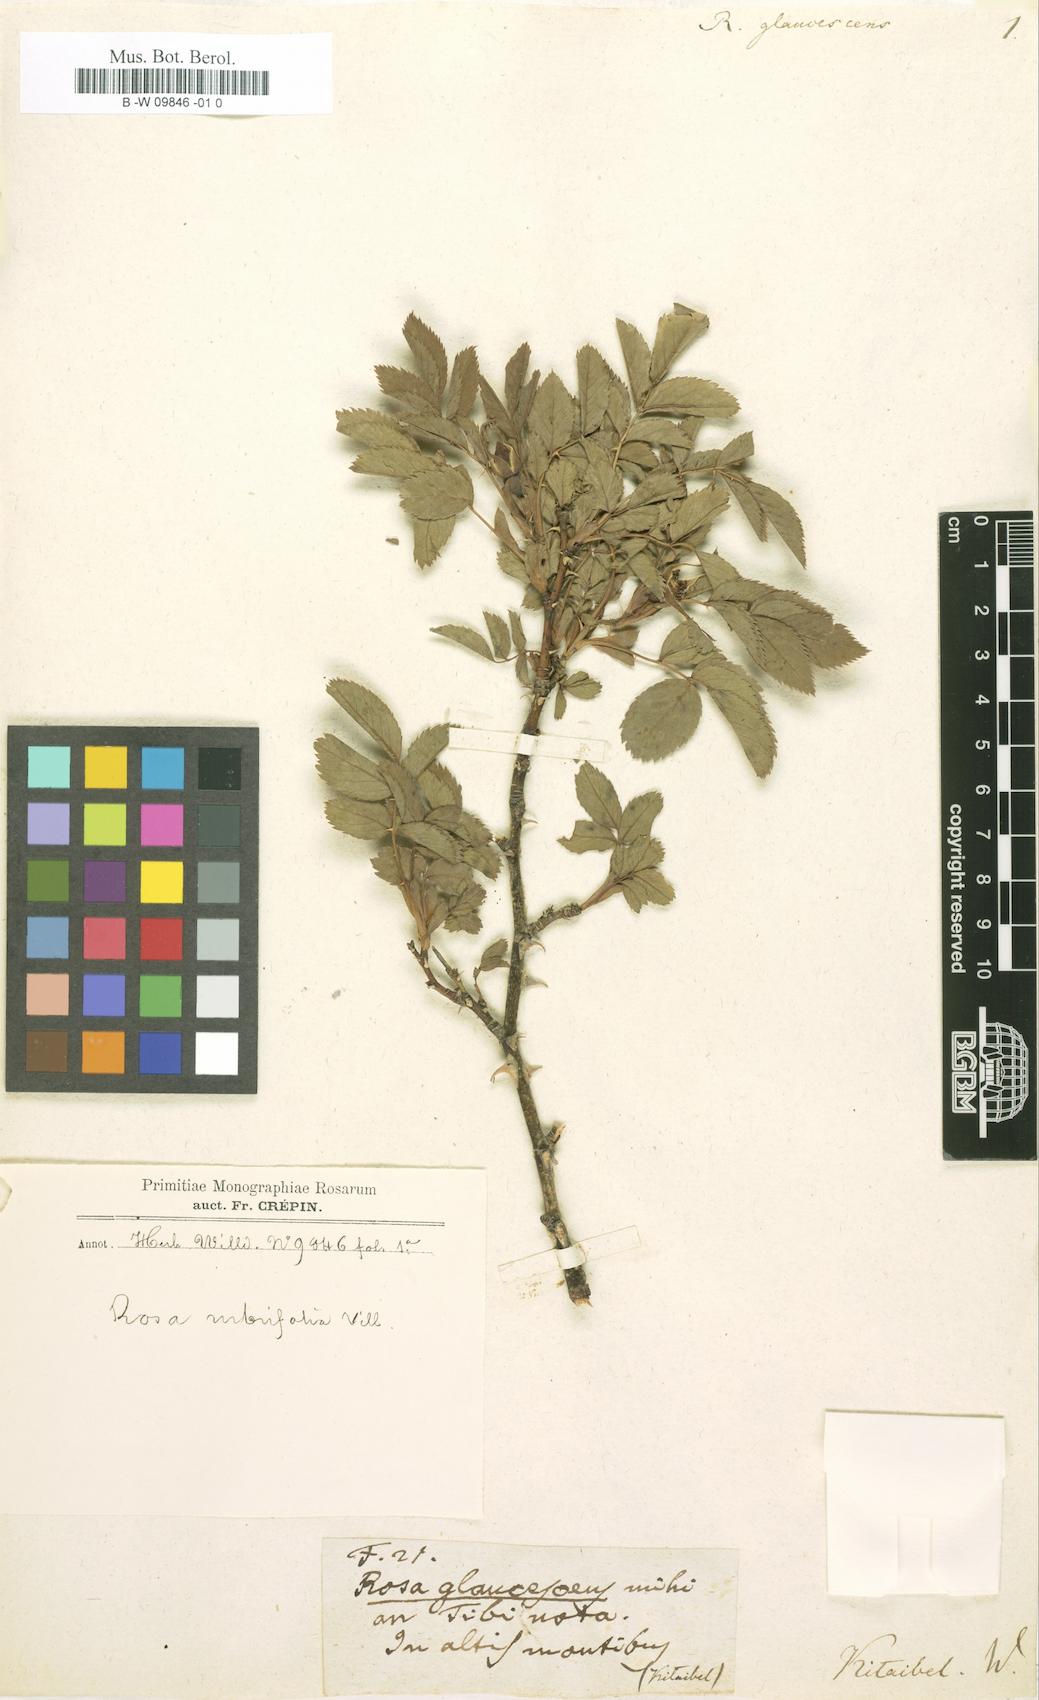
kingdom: Plantae
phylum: Tracheophyta
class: Magnoliopsida
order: Rosales
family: Rosaceae
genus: Rosa
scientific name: Rosa glaucescens
